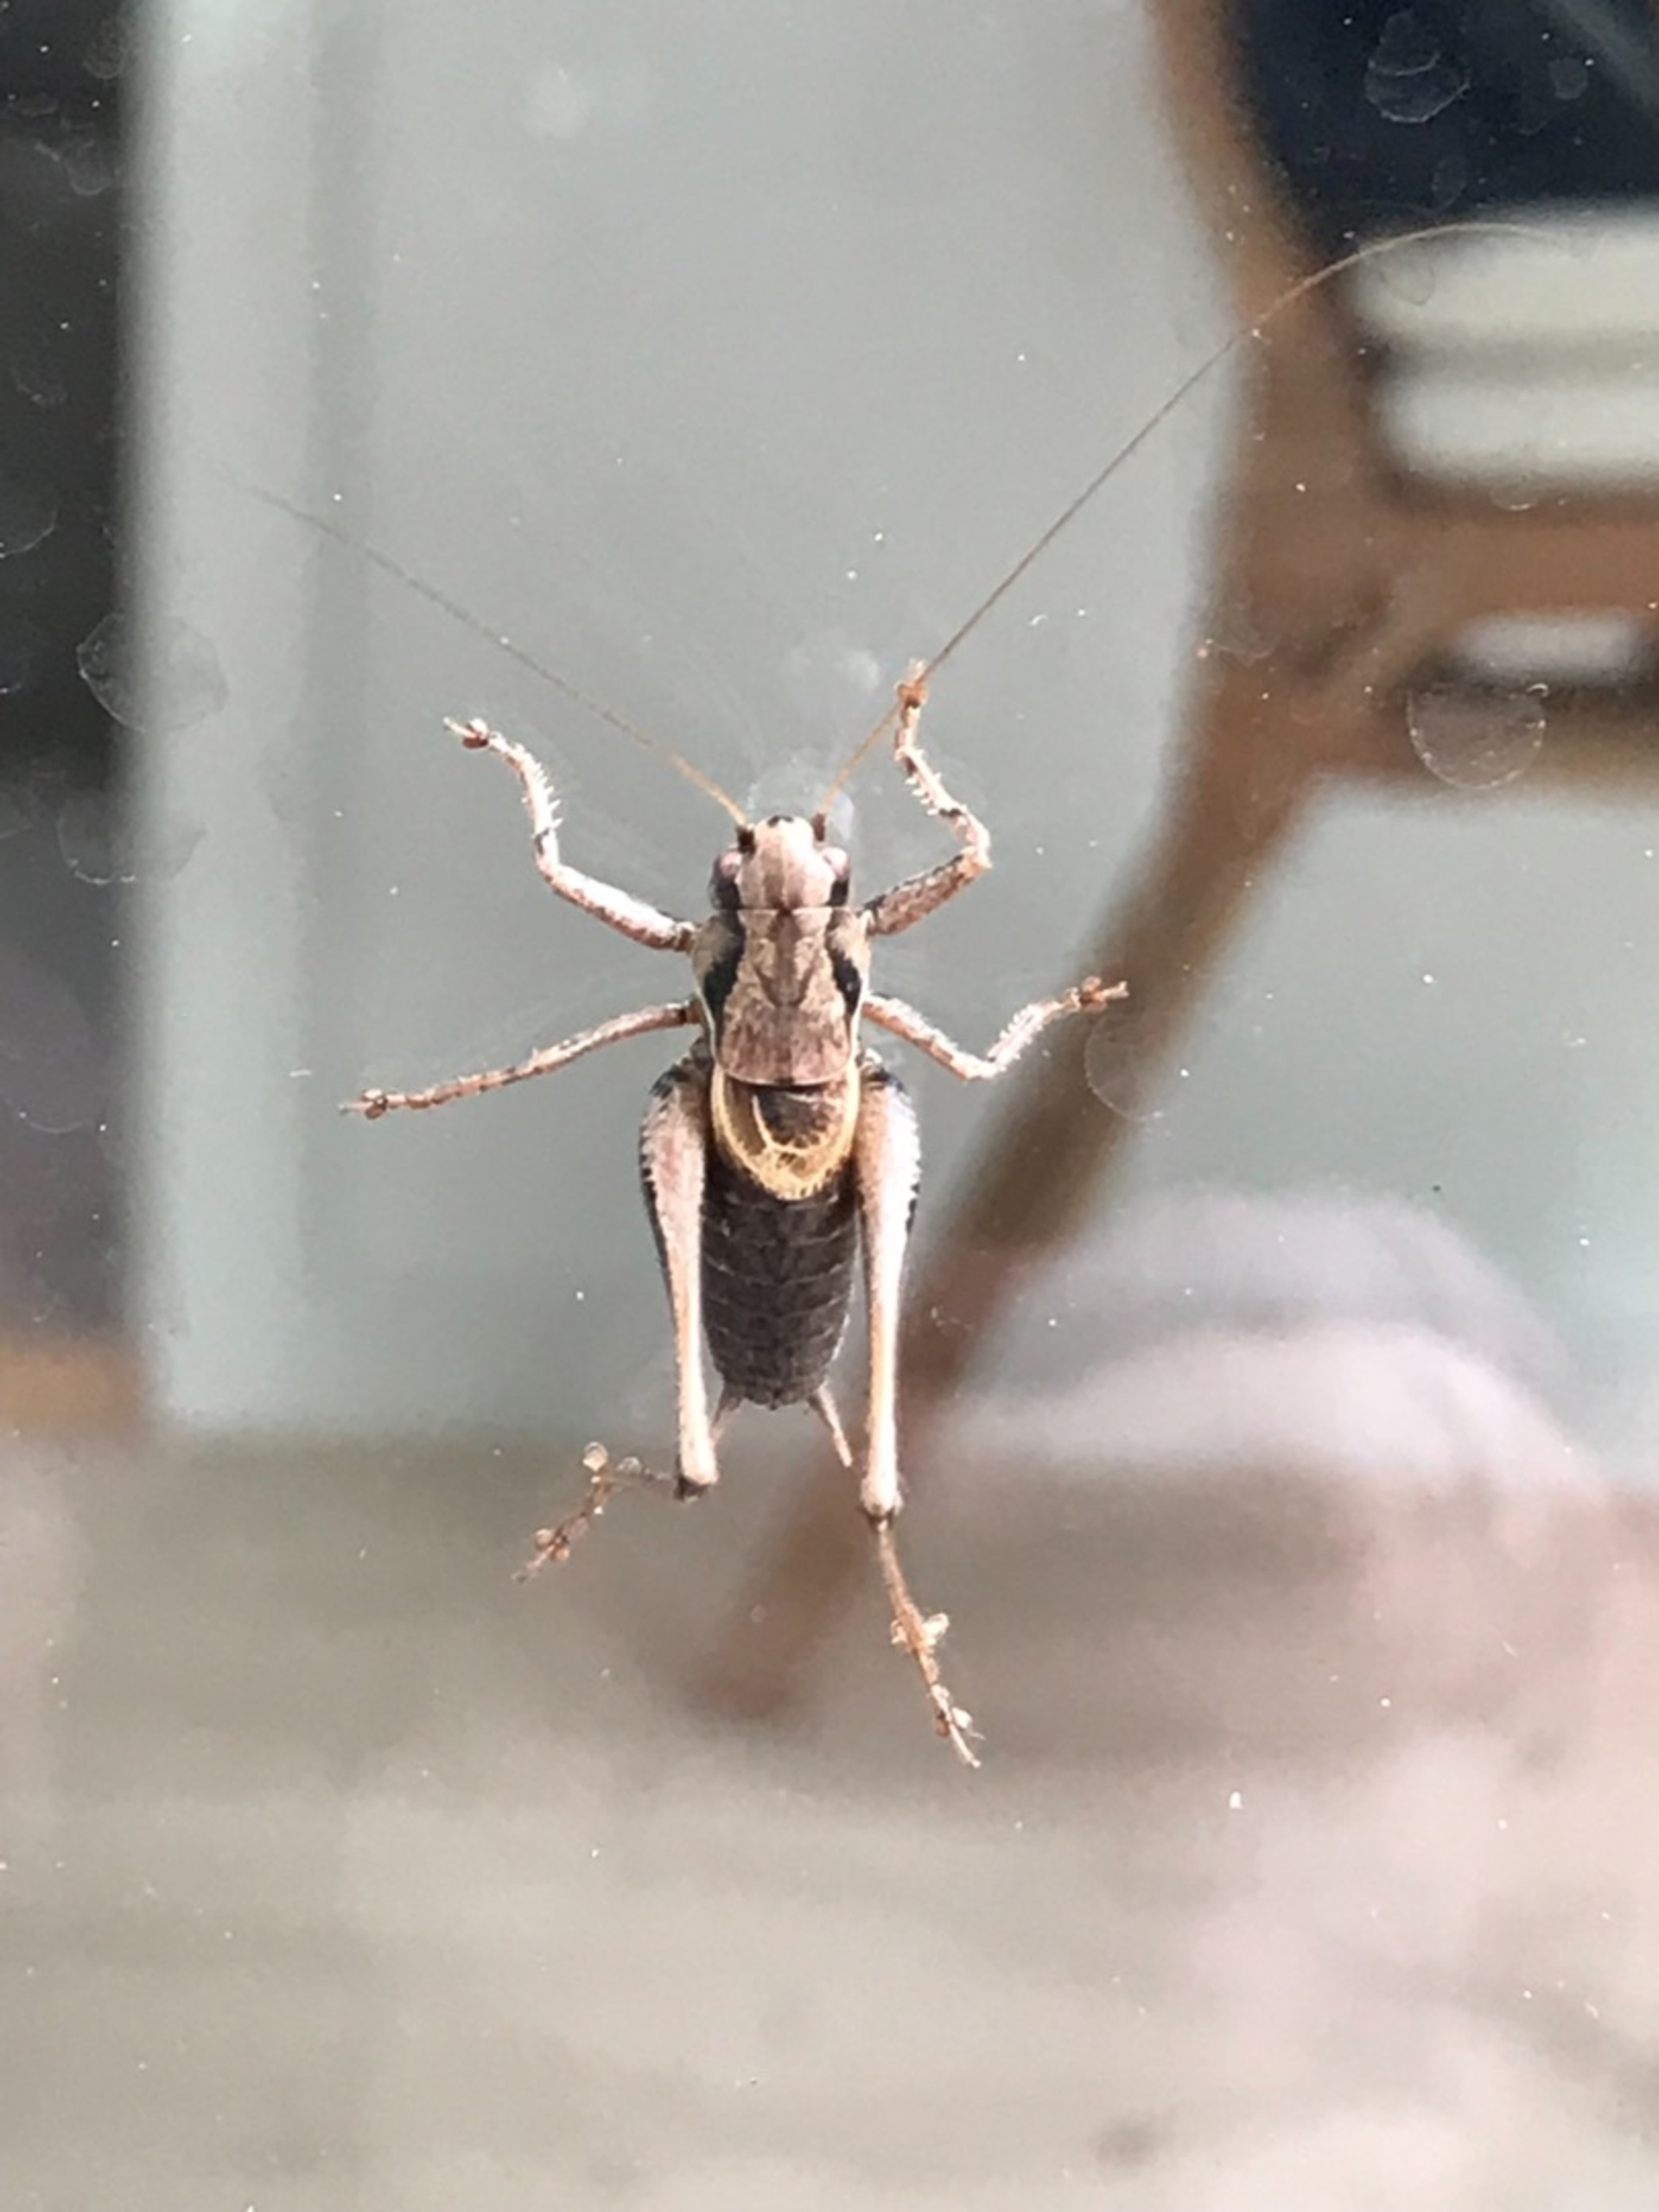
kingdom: Animalia
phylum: Arthropoda
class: Insecta
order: Orthoptera
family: Tettigoniidae
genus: Pholidoptera
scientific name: Pholidoptera griseoaptera
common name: Buskgræshoppe
